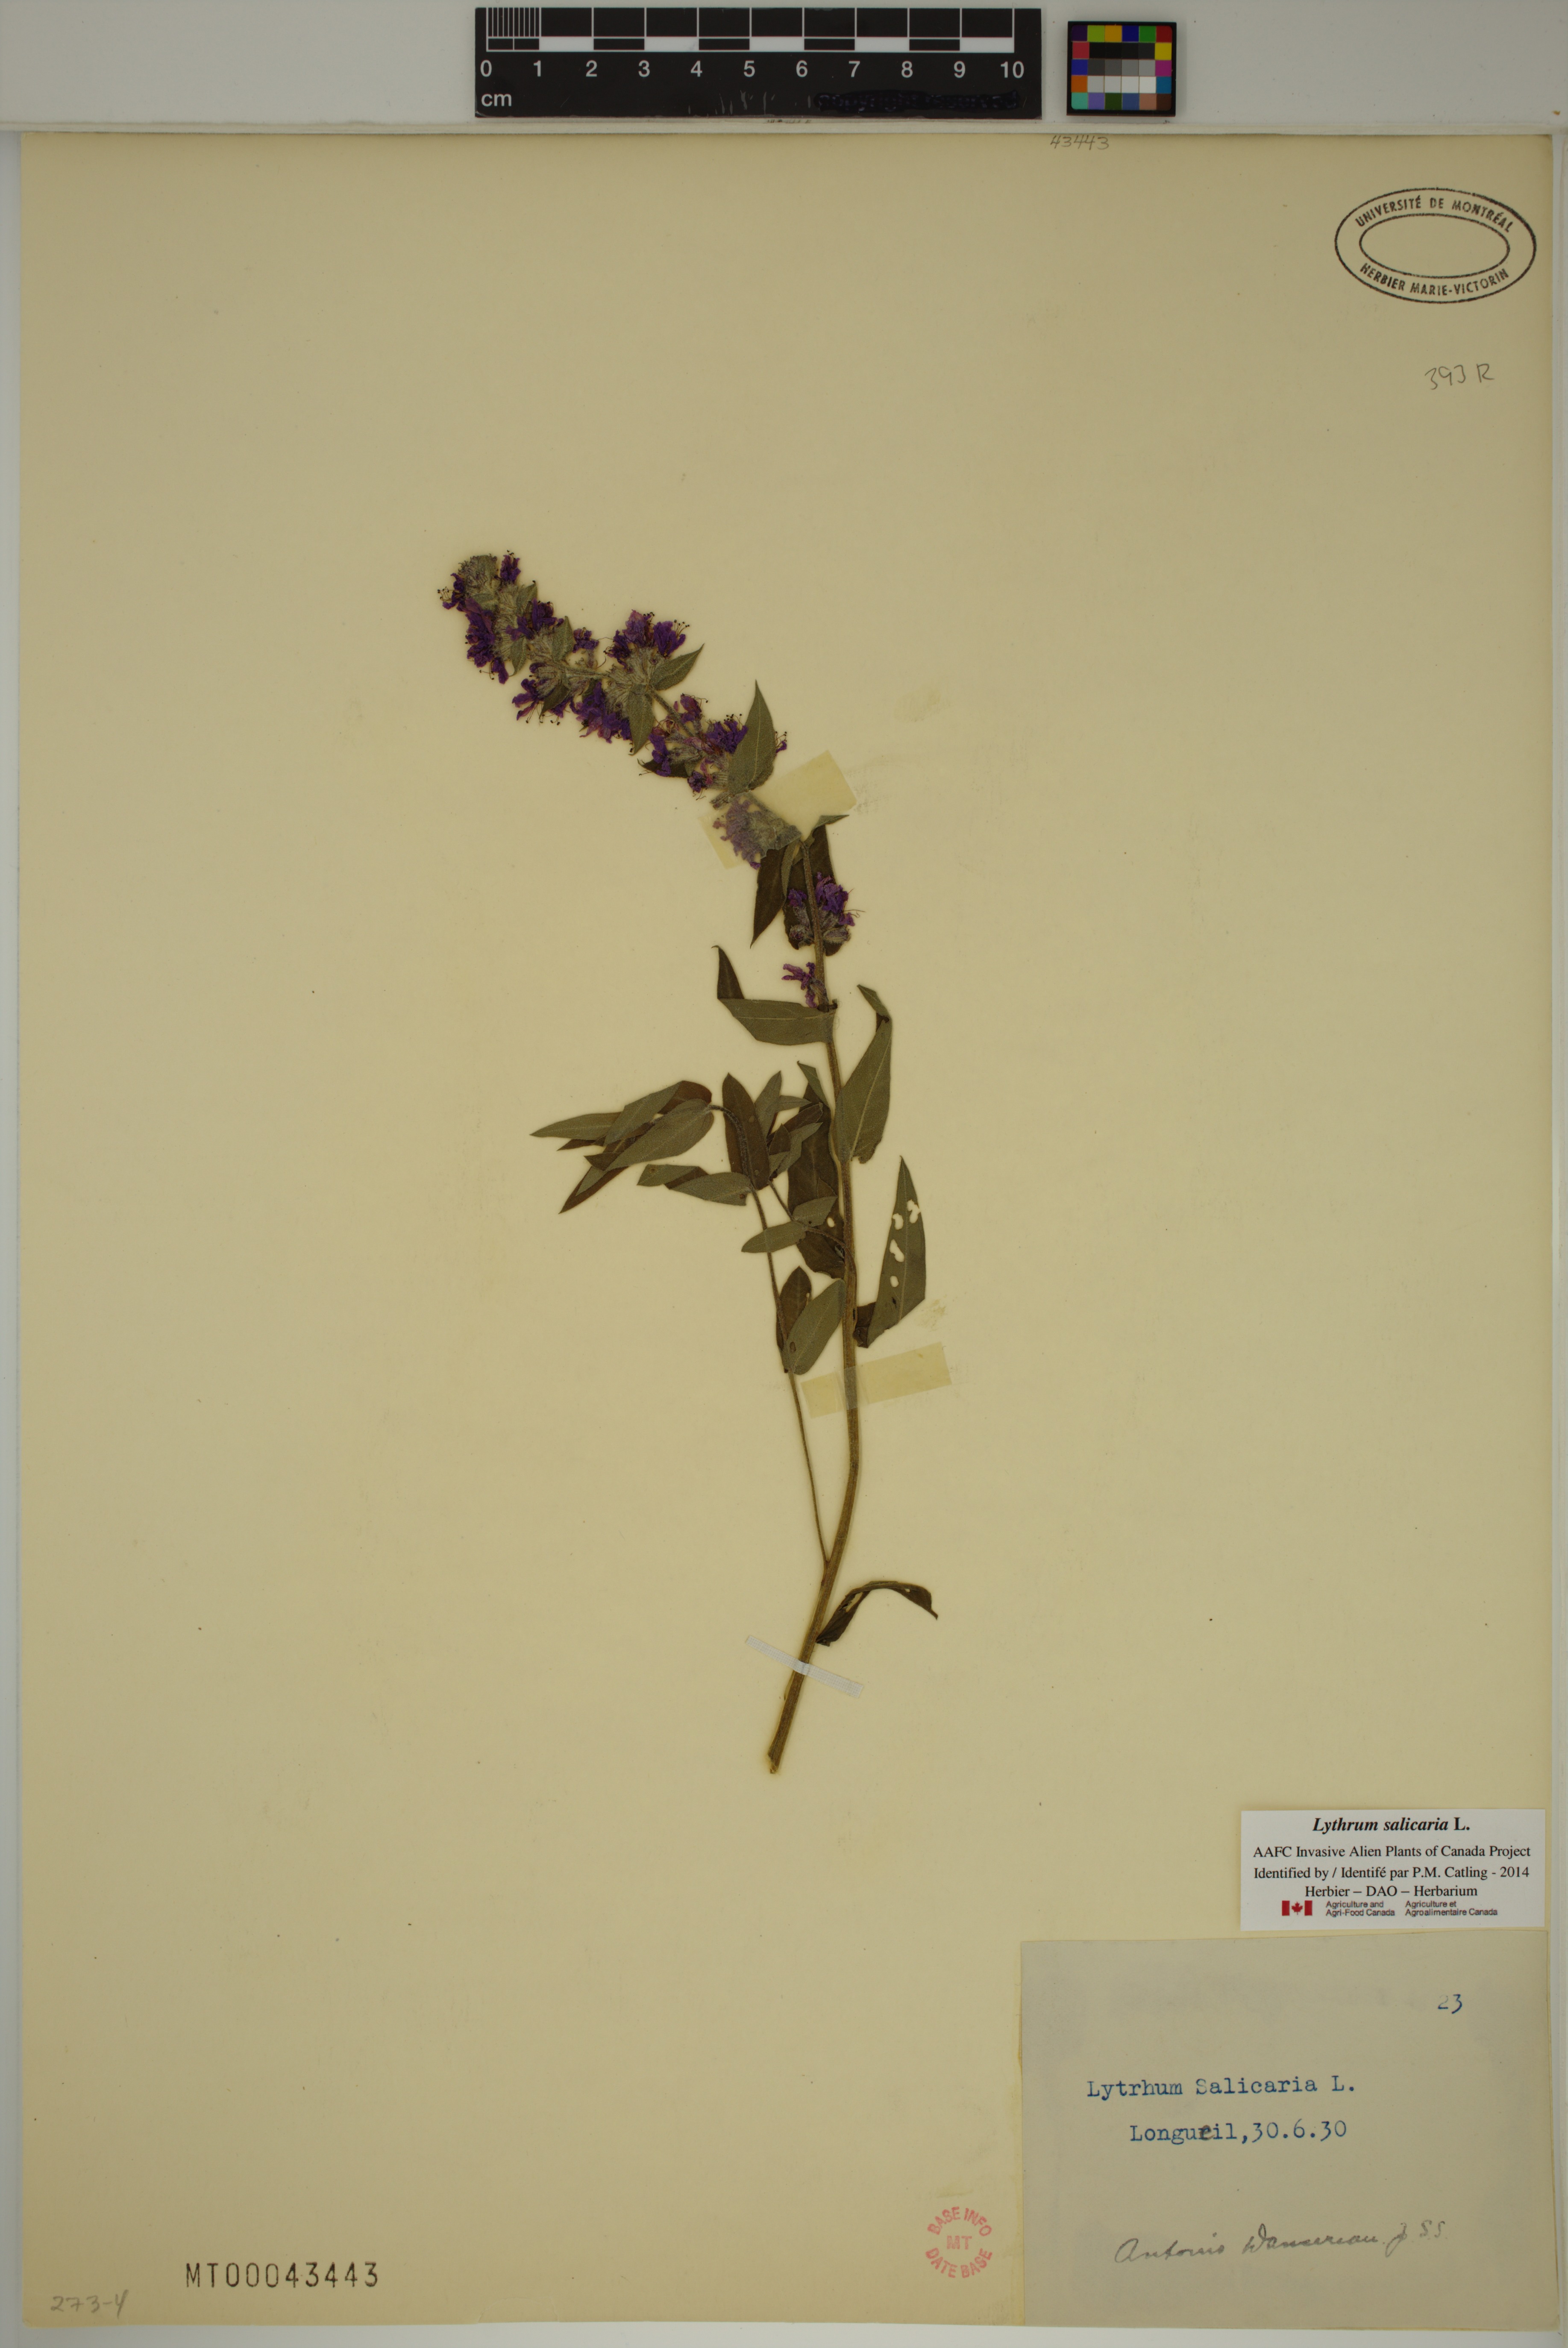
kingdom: Plantae
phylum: Tracheophyta
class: Magnoliopsida
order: Myrtales
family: Lythraceae
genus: Lythrum
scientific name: Lythrum salicaria
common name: Purple loosestrife
